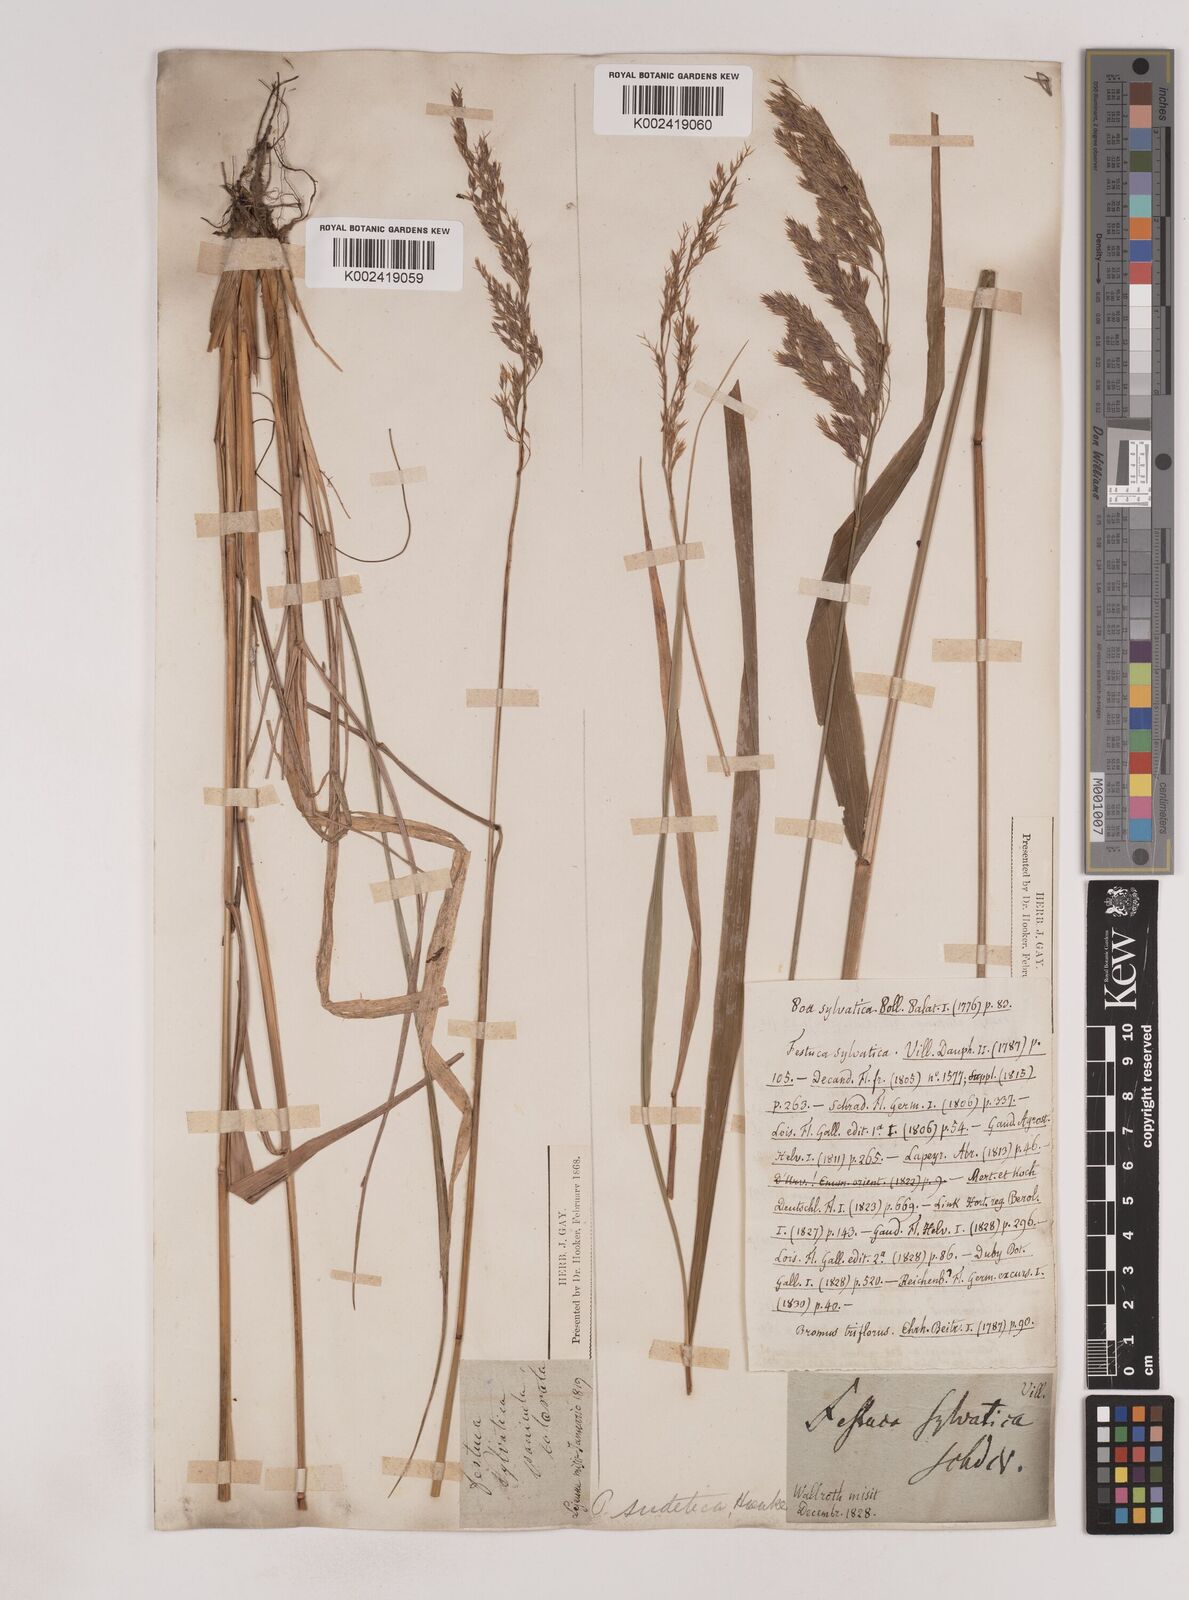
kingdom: Plantae
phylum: Tracheophyta
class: Liliopsida
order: Poales
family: Poaceae
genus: Festuca
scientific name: Festuca drymeja
